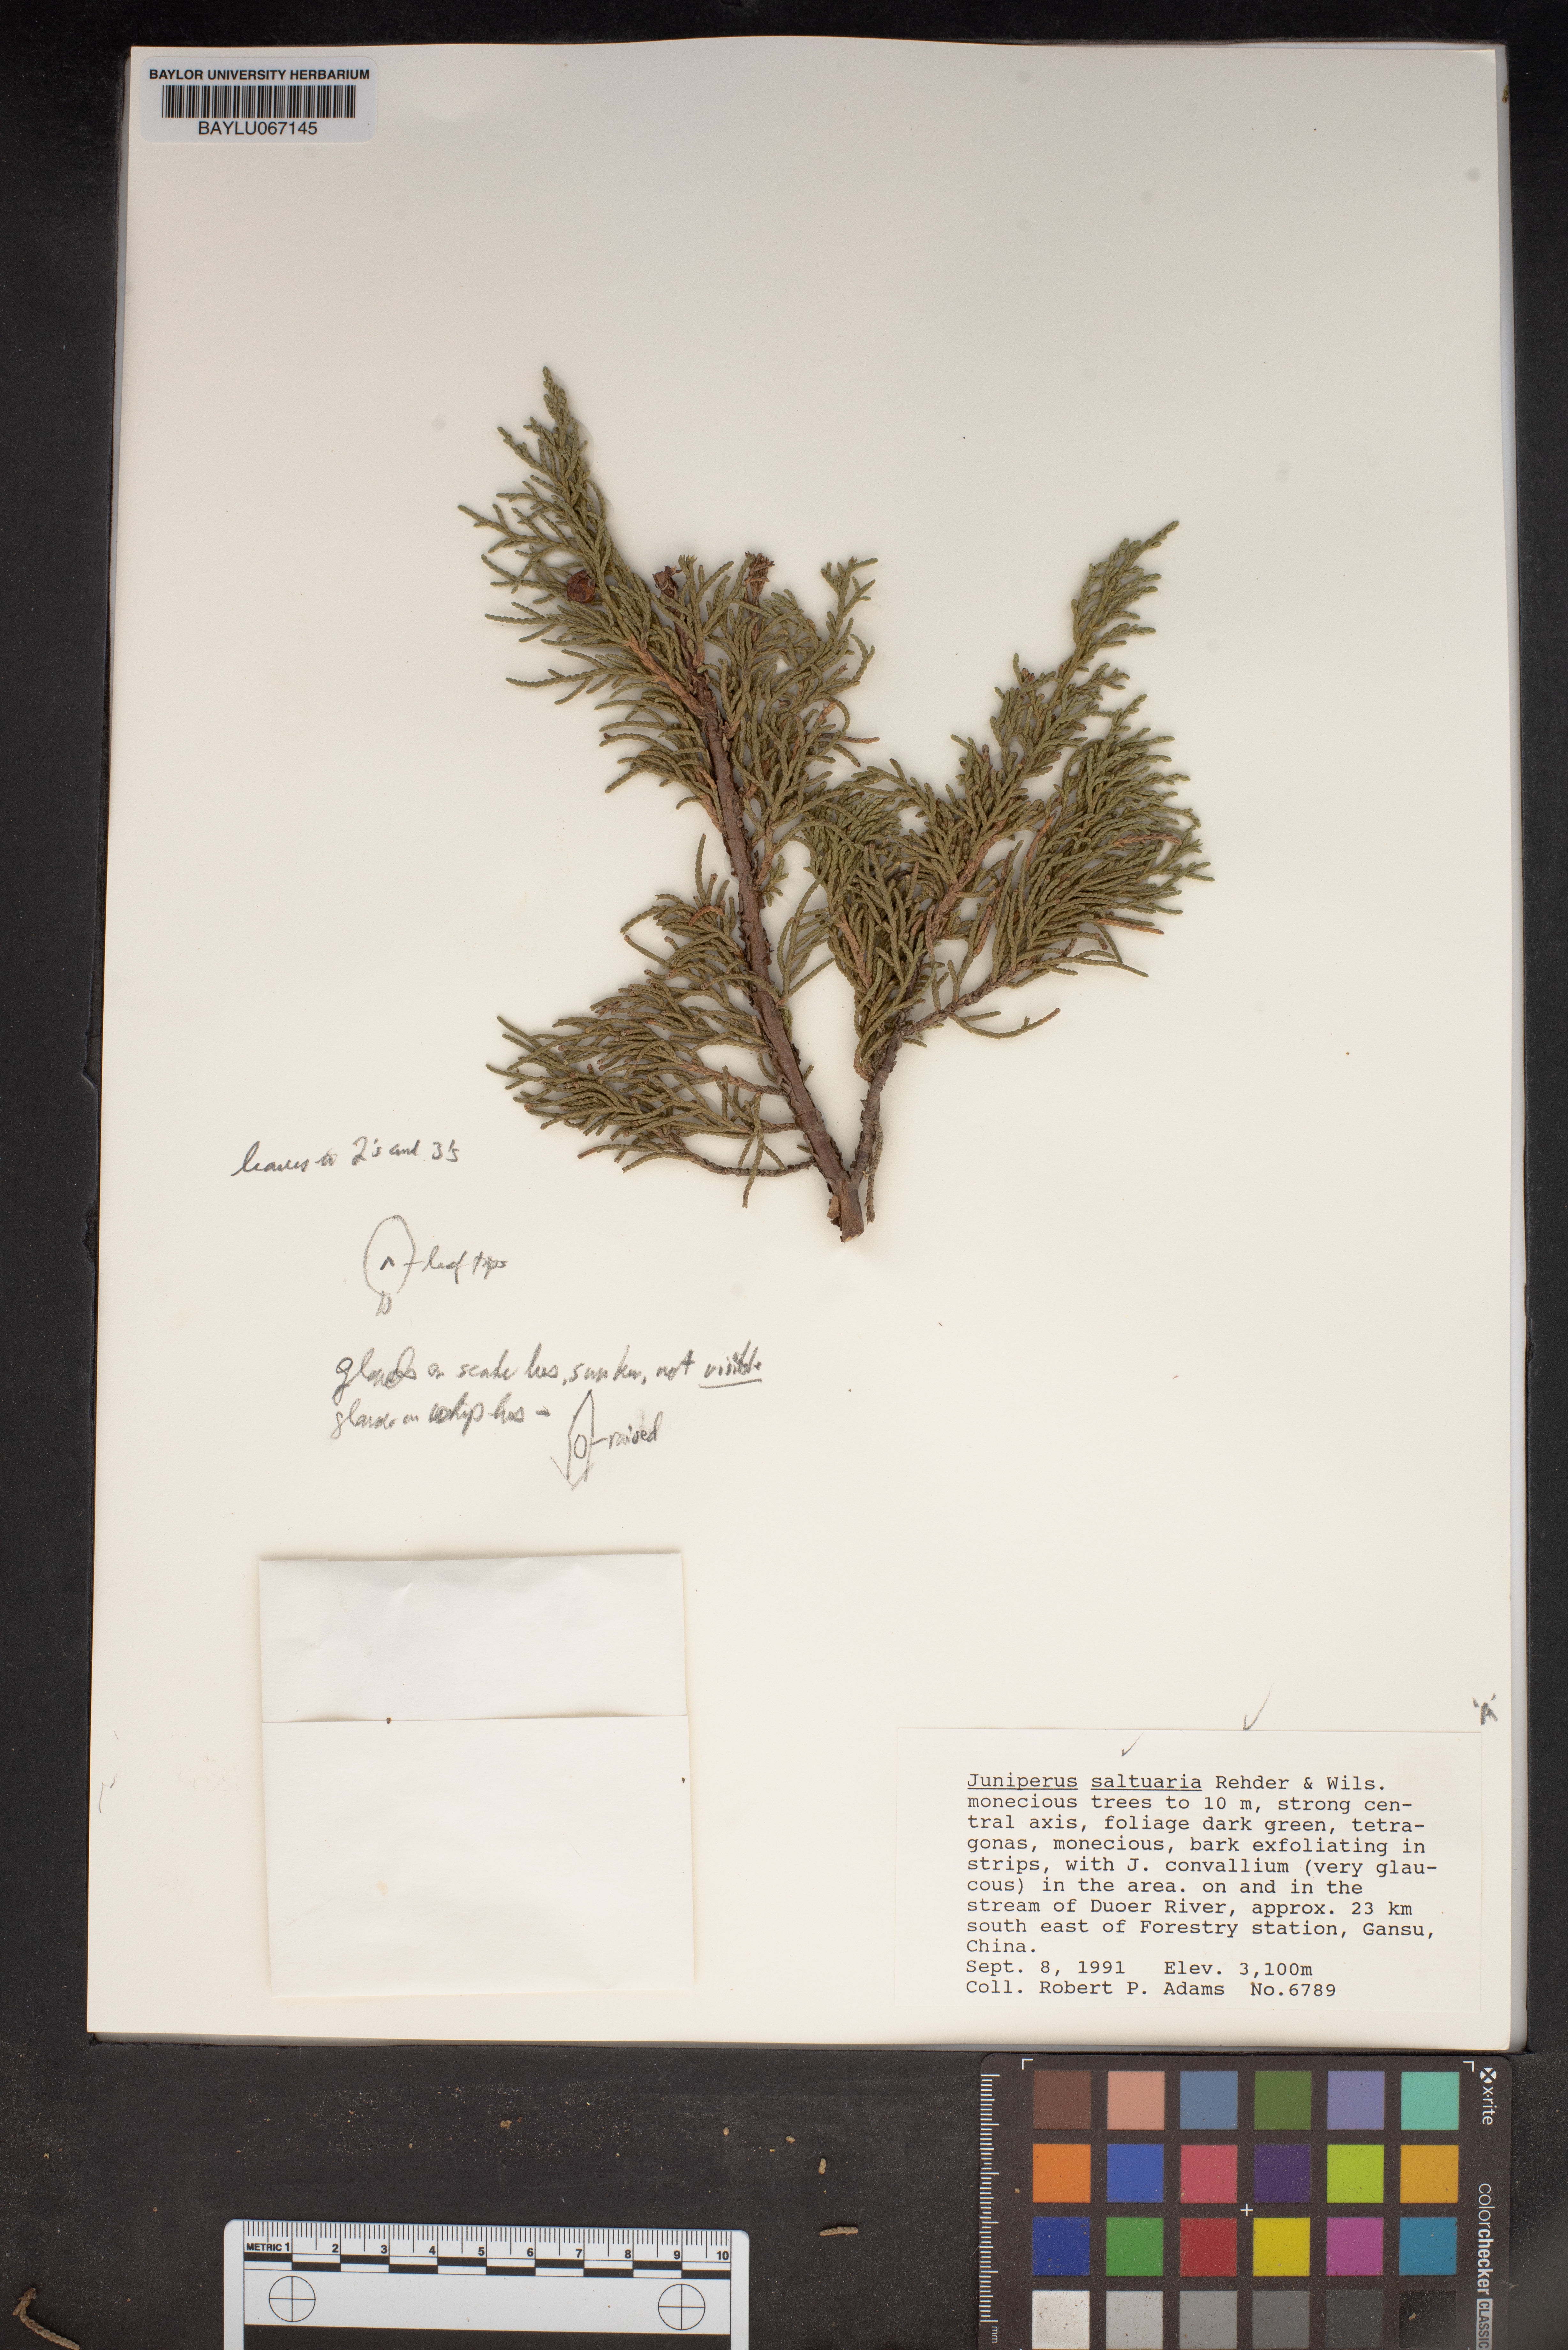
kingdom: Plantae
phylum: Tracheophyta
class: Pinopsida
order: Pinales
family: Cupressaceae
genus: Juniperus
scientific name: Juniperus saltuaria
